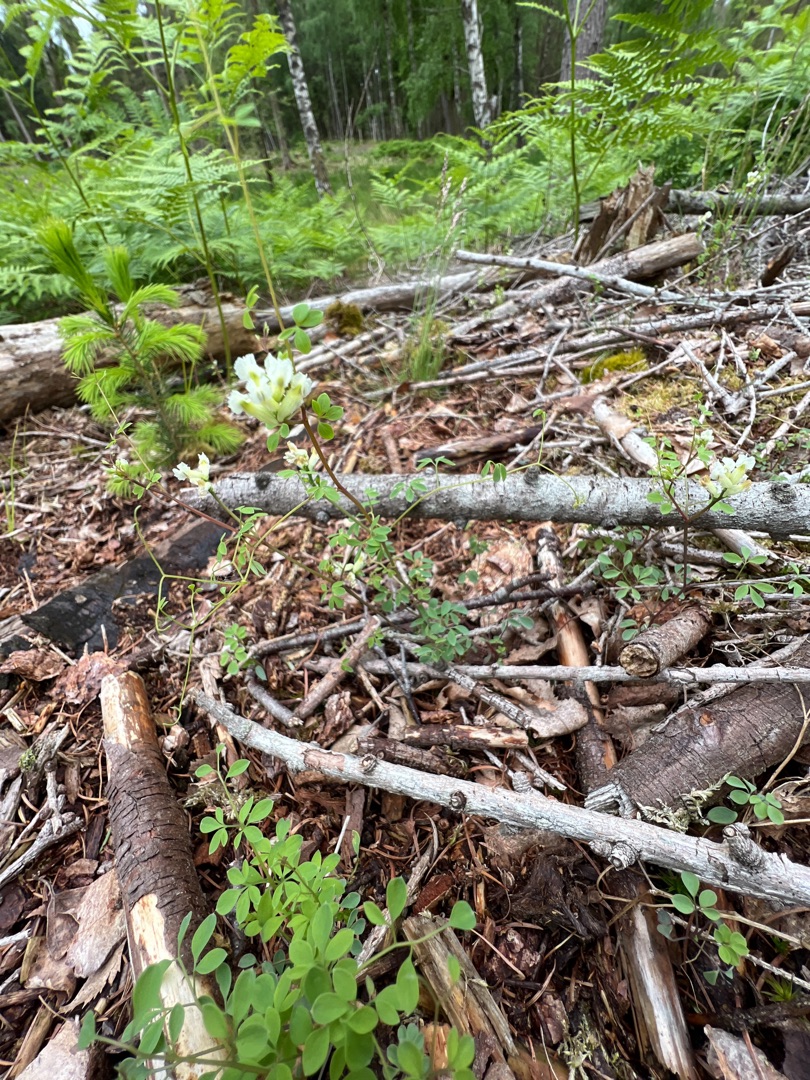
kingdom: Plantae
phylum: Tracheophyta
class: Magnoliopsida
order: Ranunculales
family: Papaveraceae
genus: Ceratocapnos
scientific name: Ceratocapnos claviculata
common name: Klatrende lærkespore
